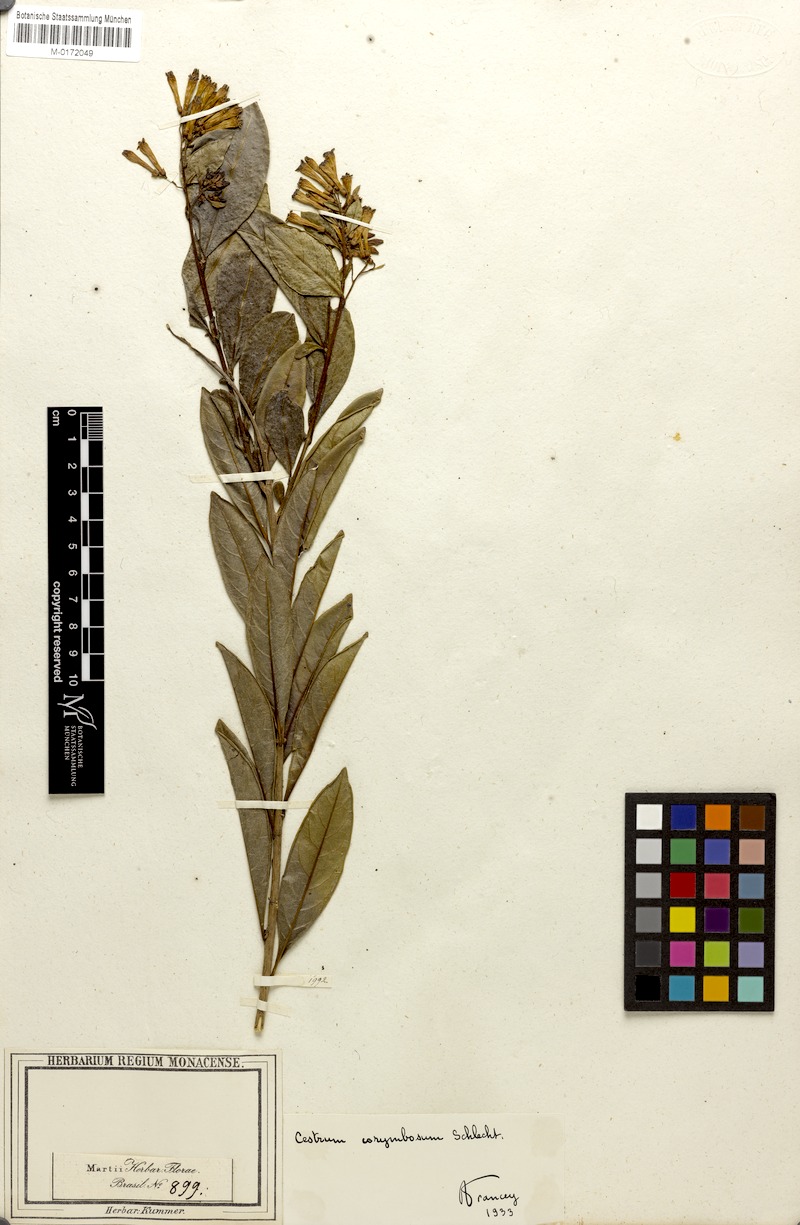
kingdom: Plantae
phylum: Tracheophyta
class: Magnoliopsida
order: Solanales
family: Solanaceae
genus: Cestrum
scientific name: Cestrum euanthes
